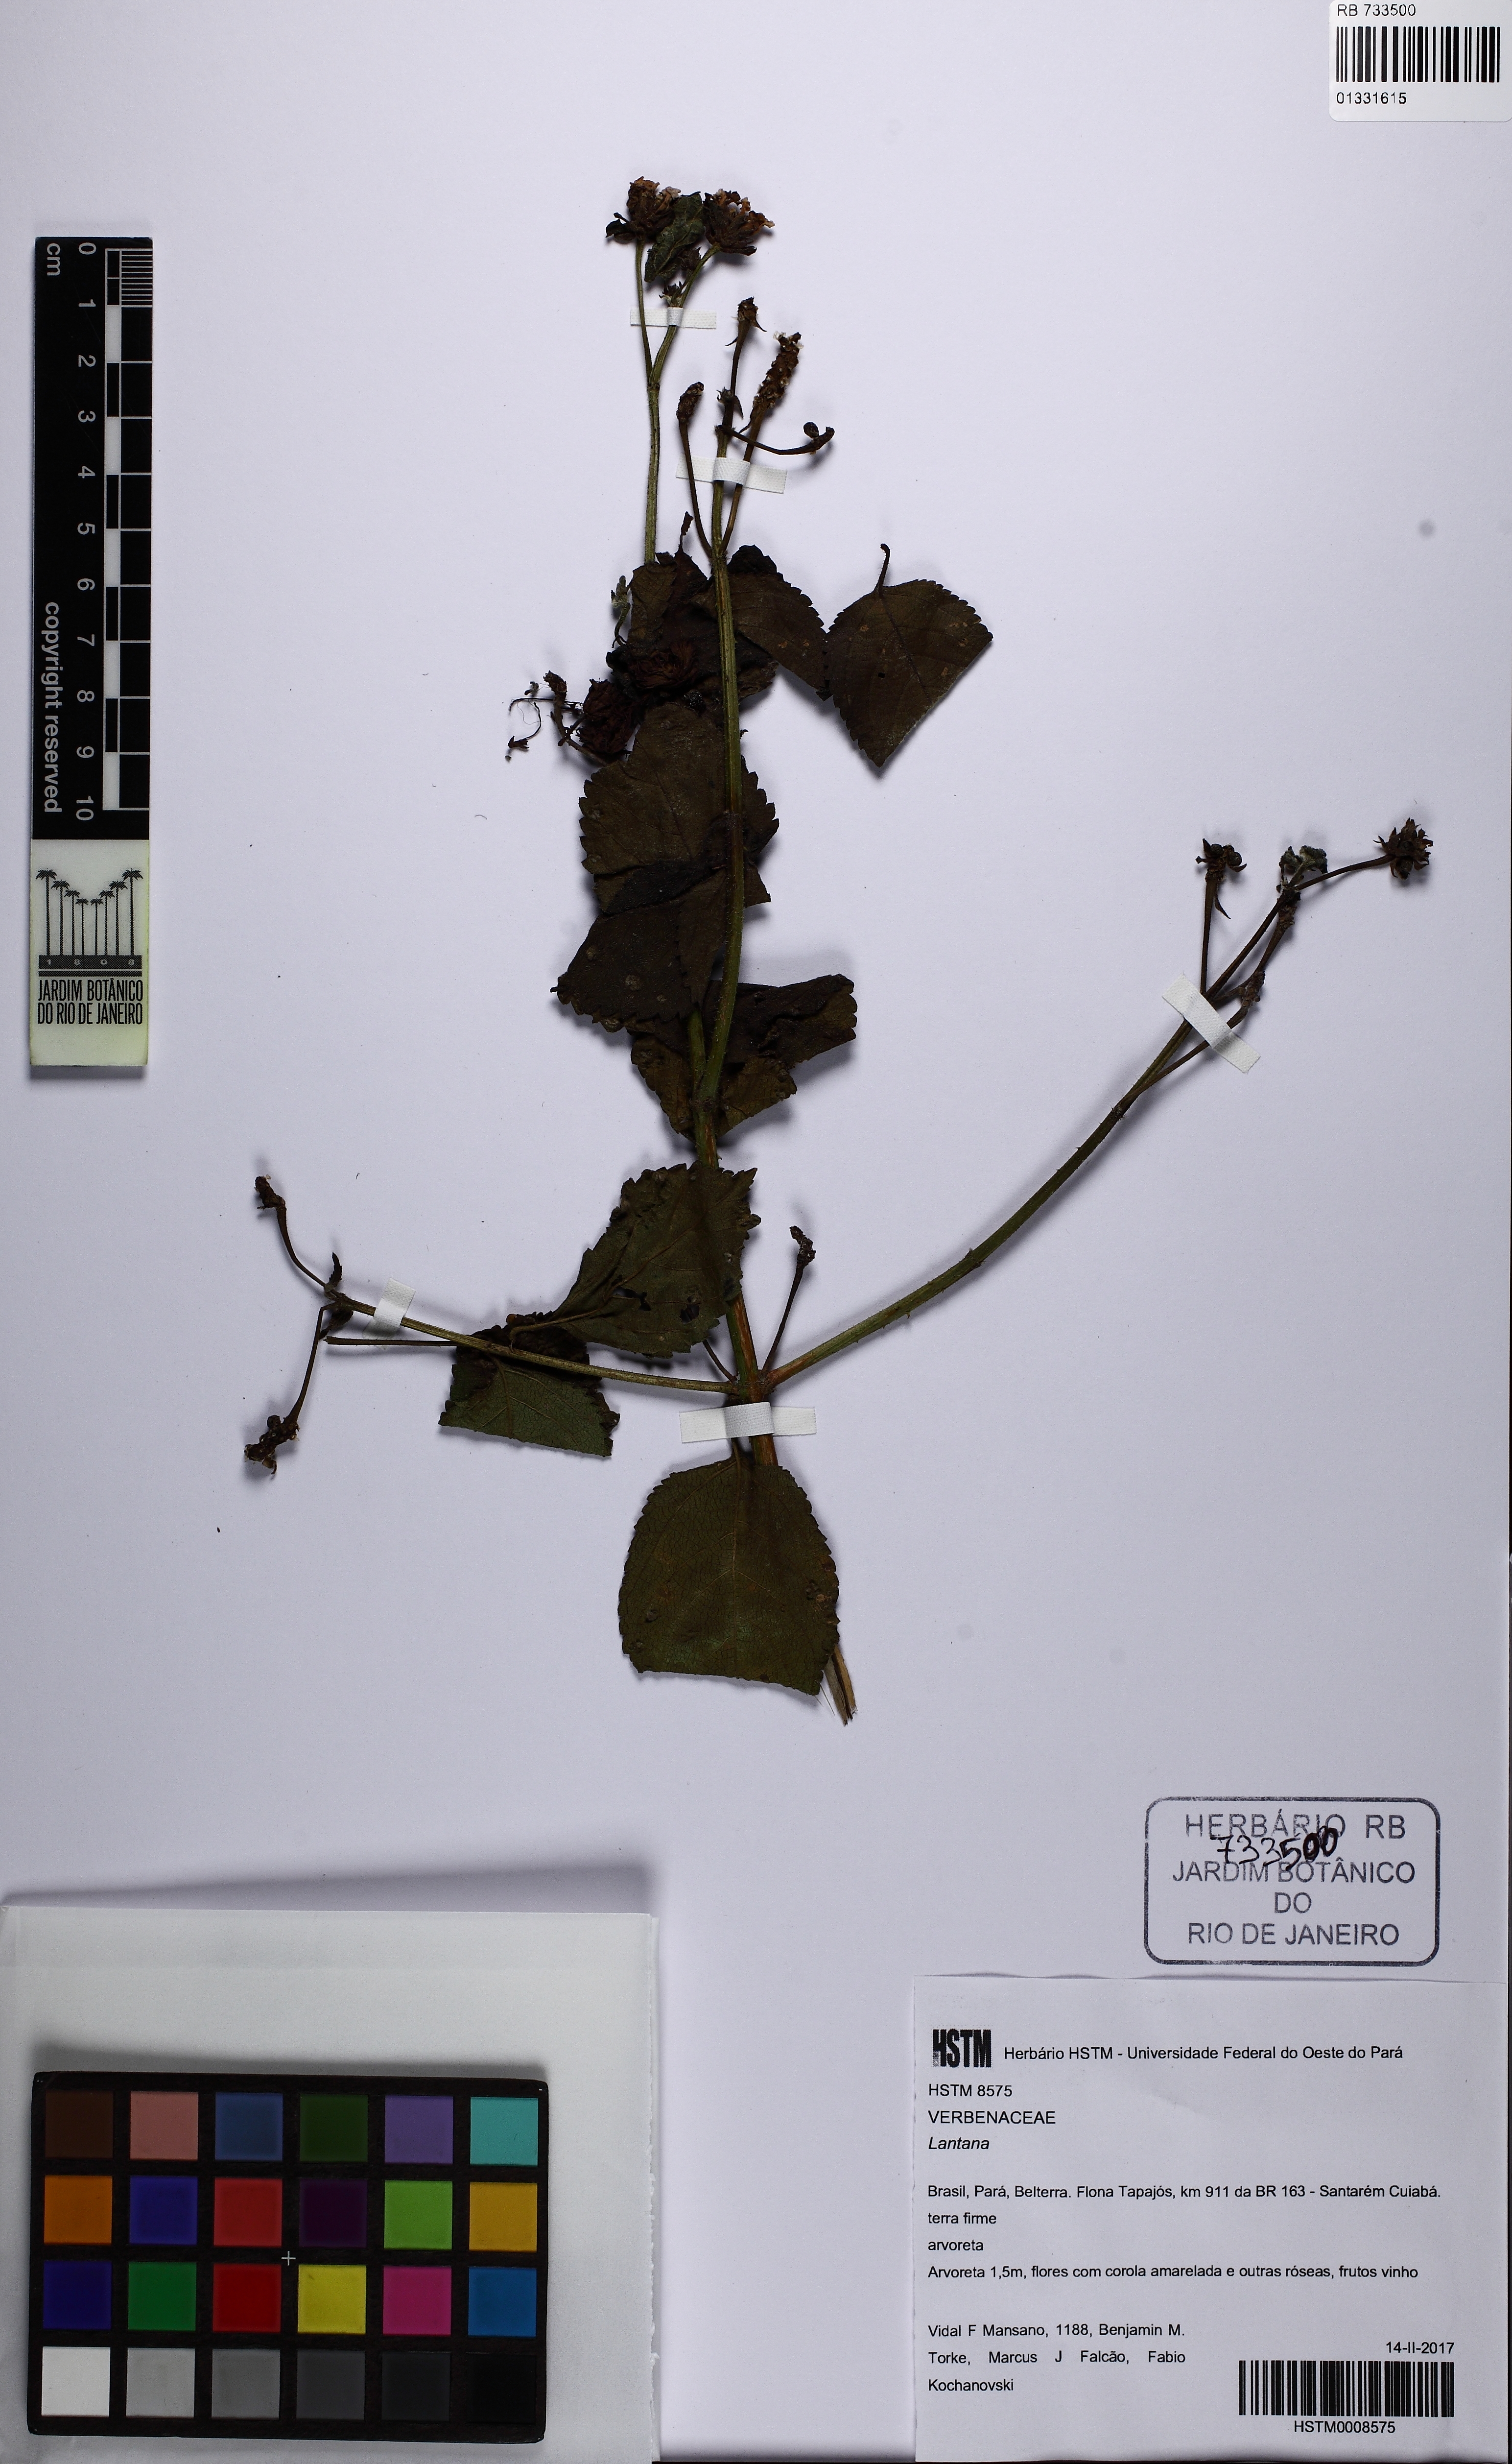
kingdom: Plantae
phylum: Tracheophyta
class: Magnoliopsida
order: Lamiales
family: Verbenaceae
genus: Lantana
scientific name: Lantana
